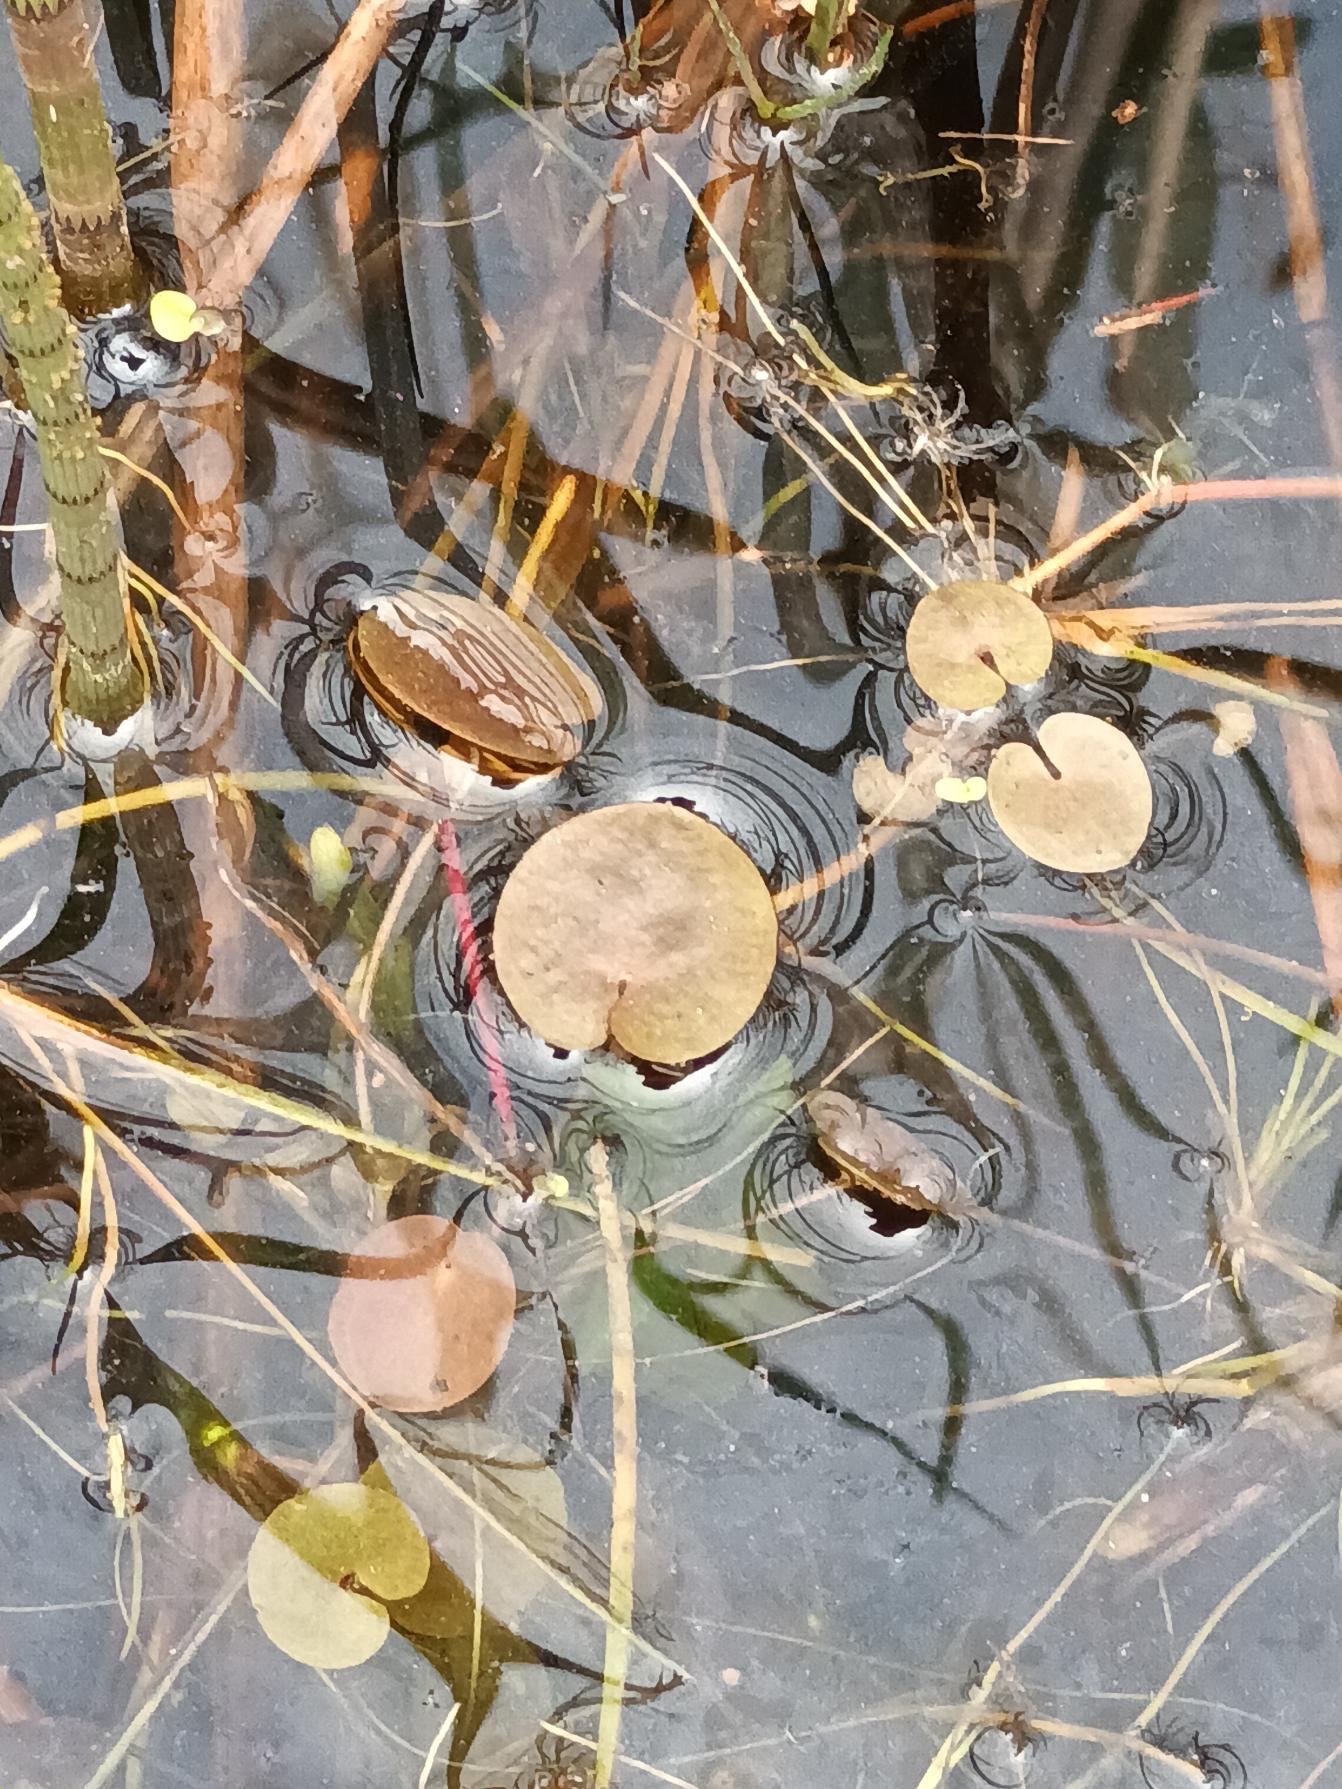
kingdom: Plantae
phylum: Tracheophyta
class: Liliopsida
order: Alismatales
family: Hydrocharitaceae
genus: Hydrocharis
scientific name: Hydrocharis morsus-ranae
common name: Frøbid
